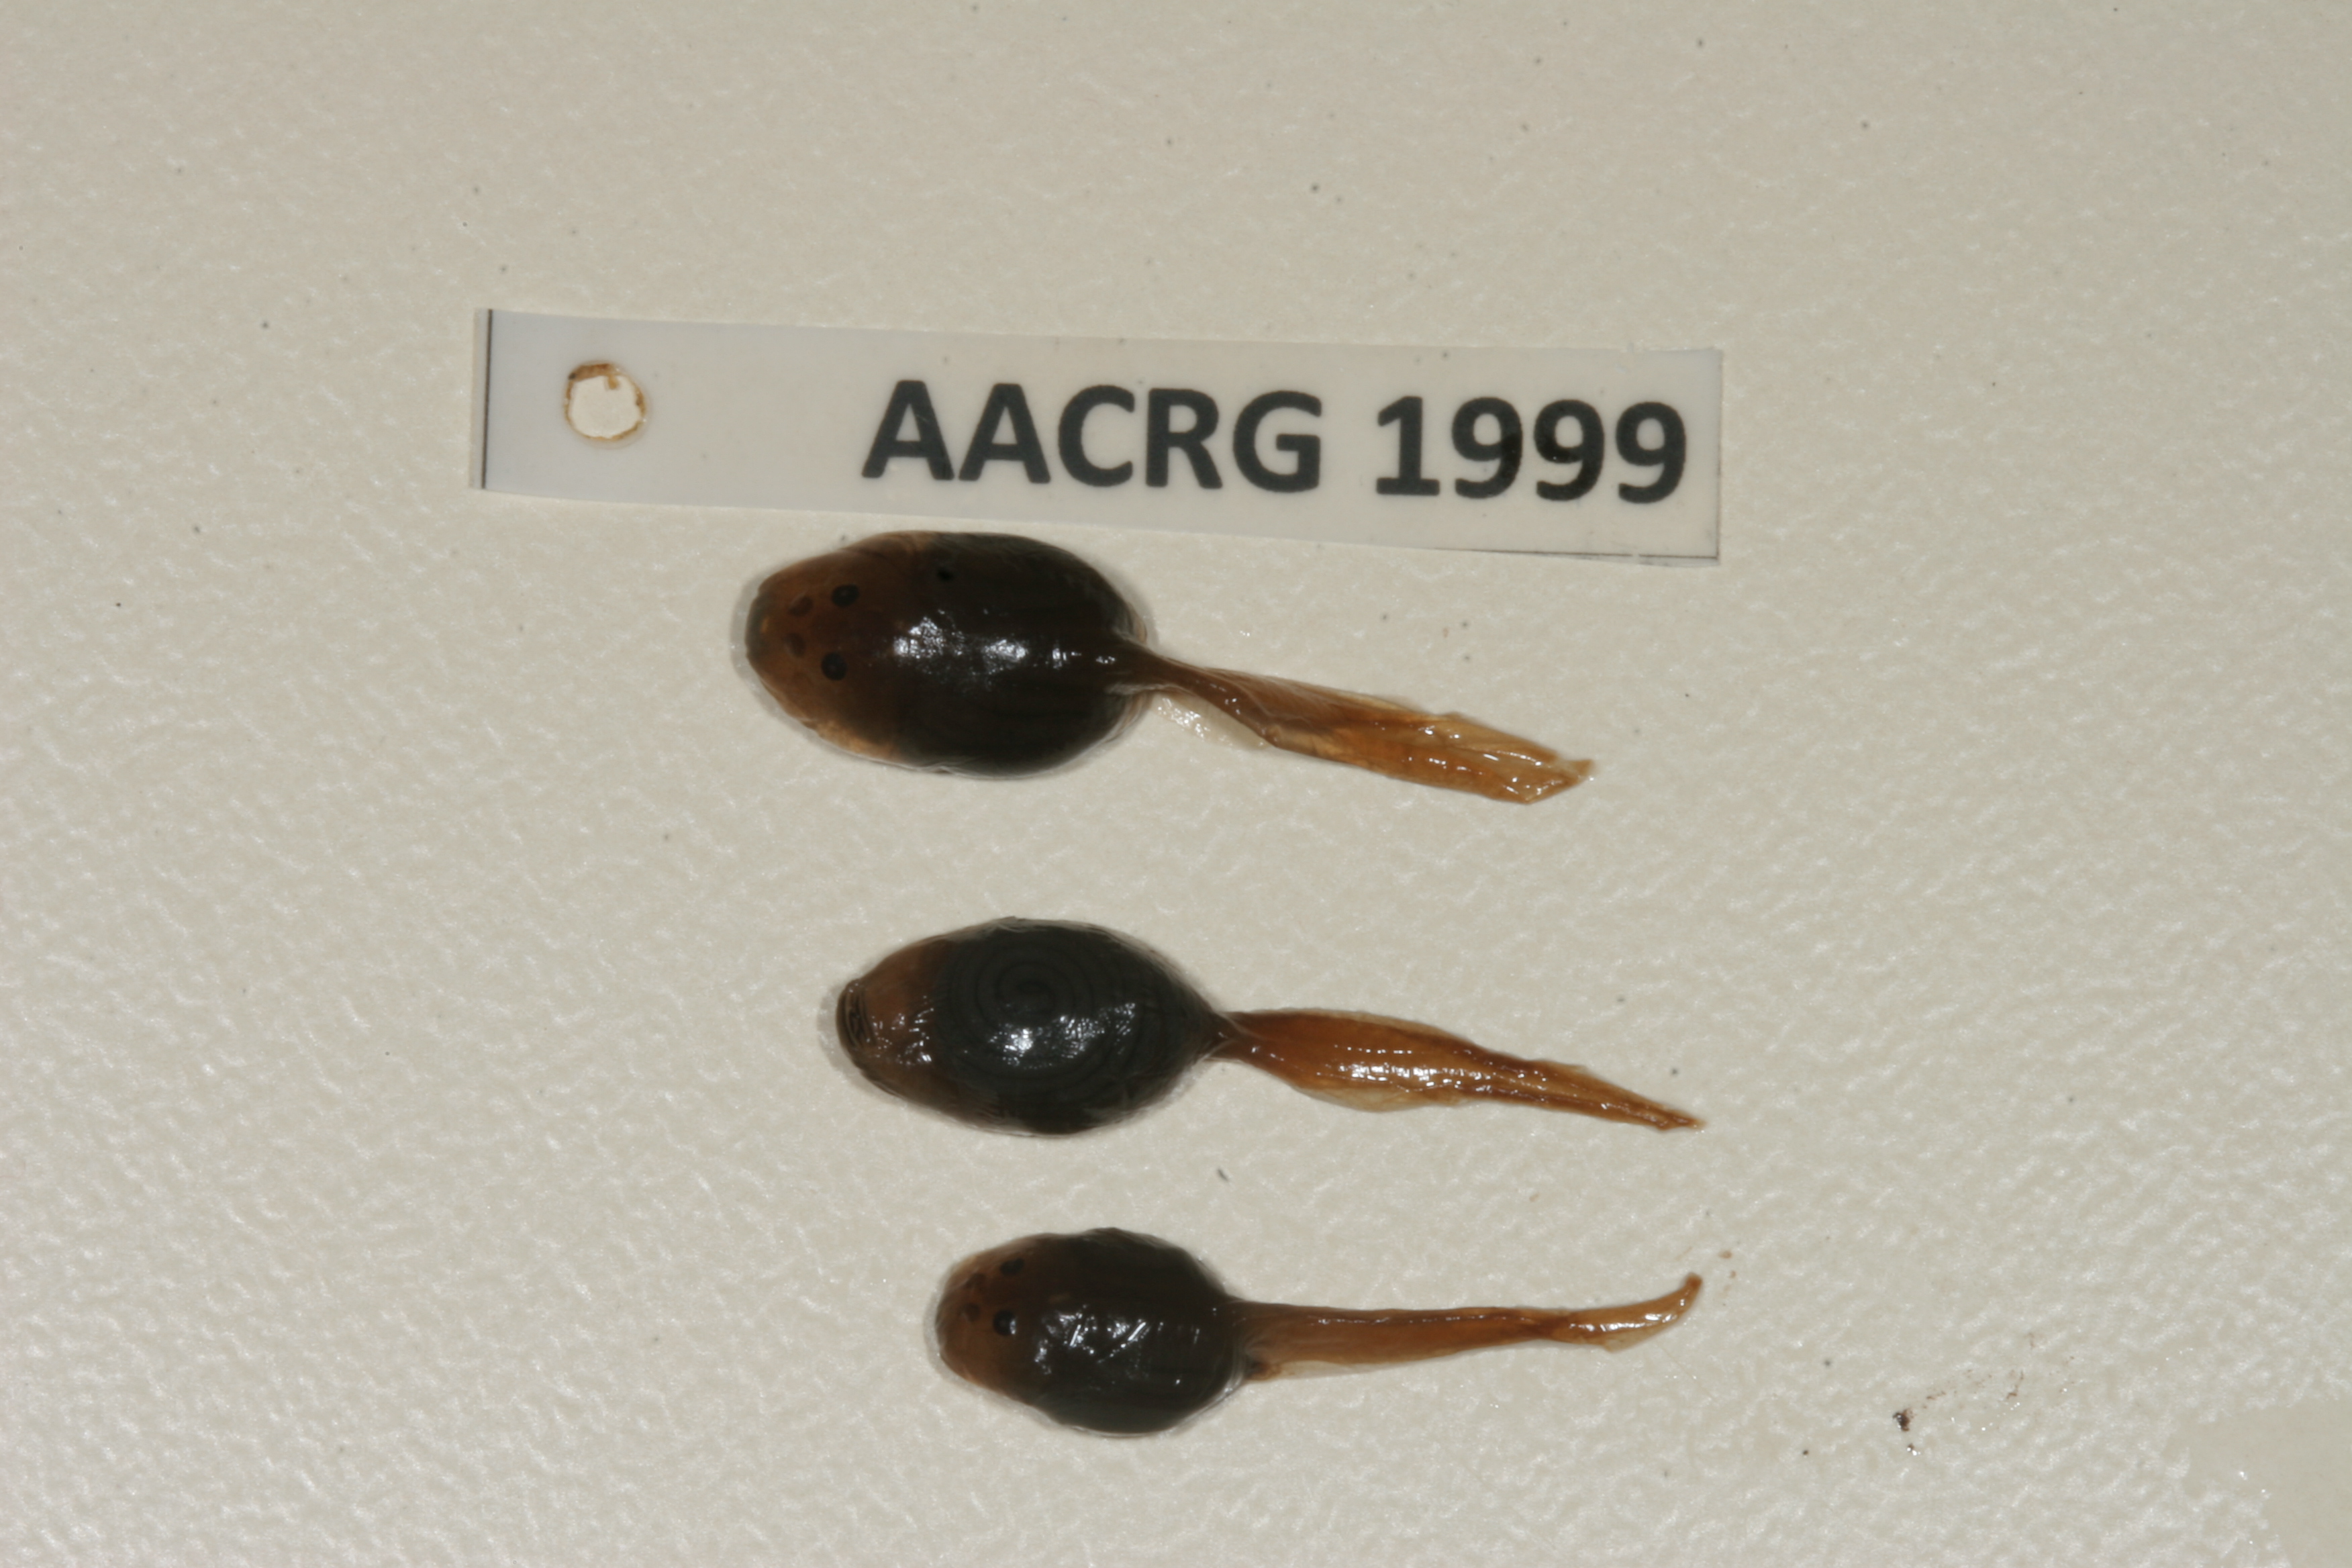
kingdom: Animalia
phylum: Chordata
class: Amphibia
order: Anura
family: Pyxicephalidae
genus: Pyxicephalus
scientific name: Pyxicephalus edulis
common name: Peter's bullfrog
